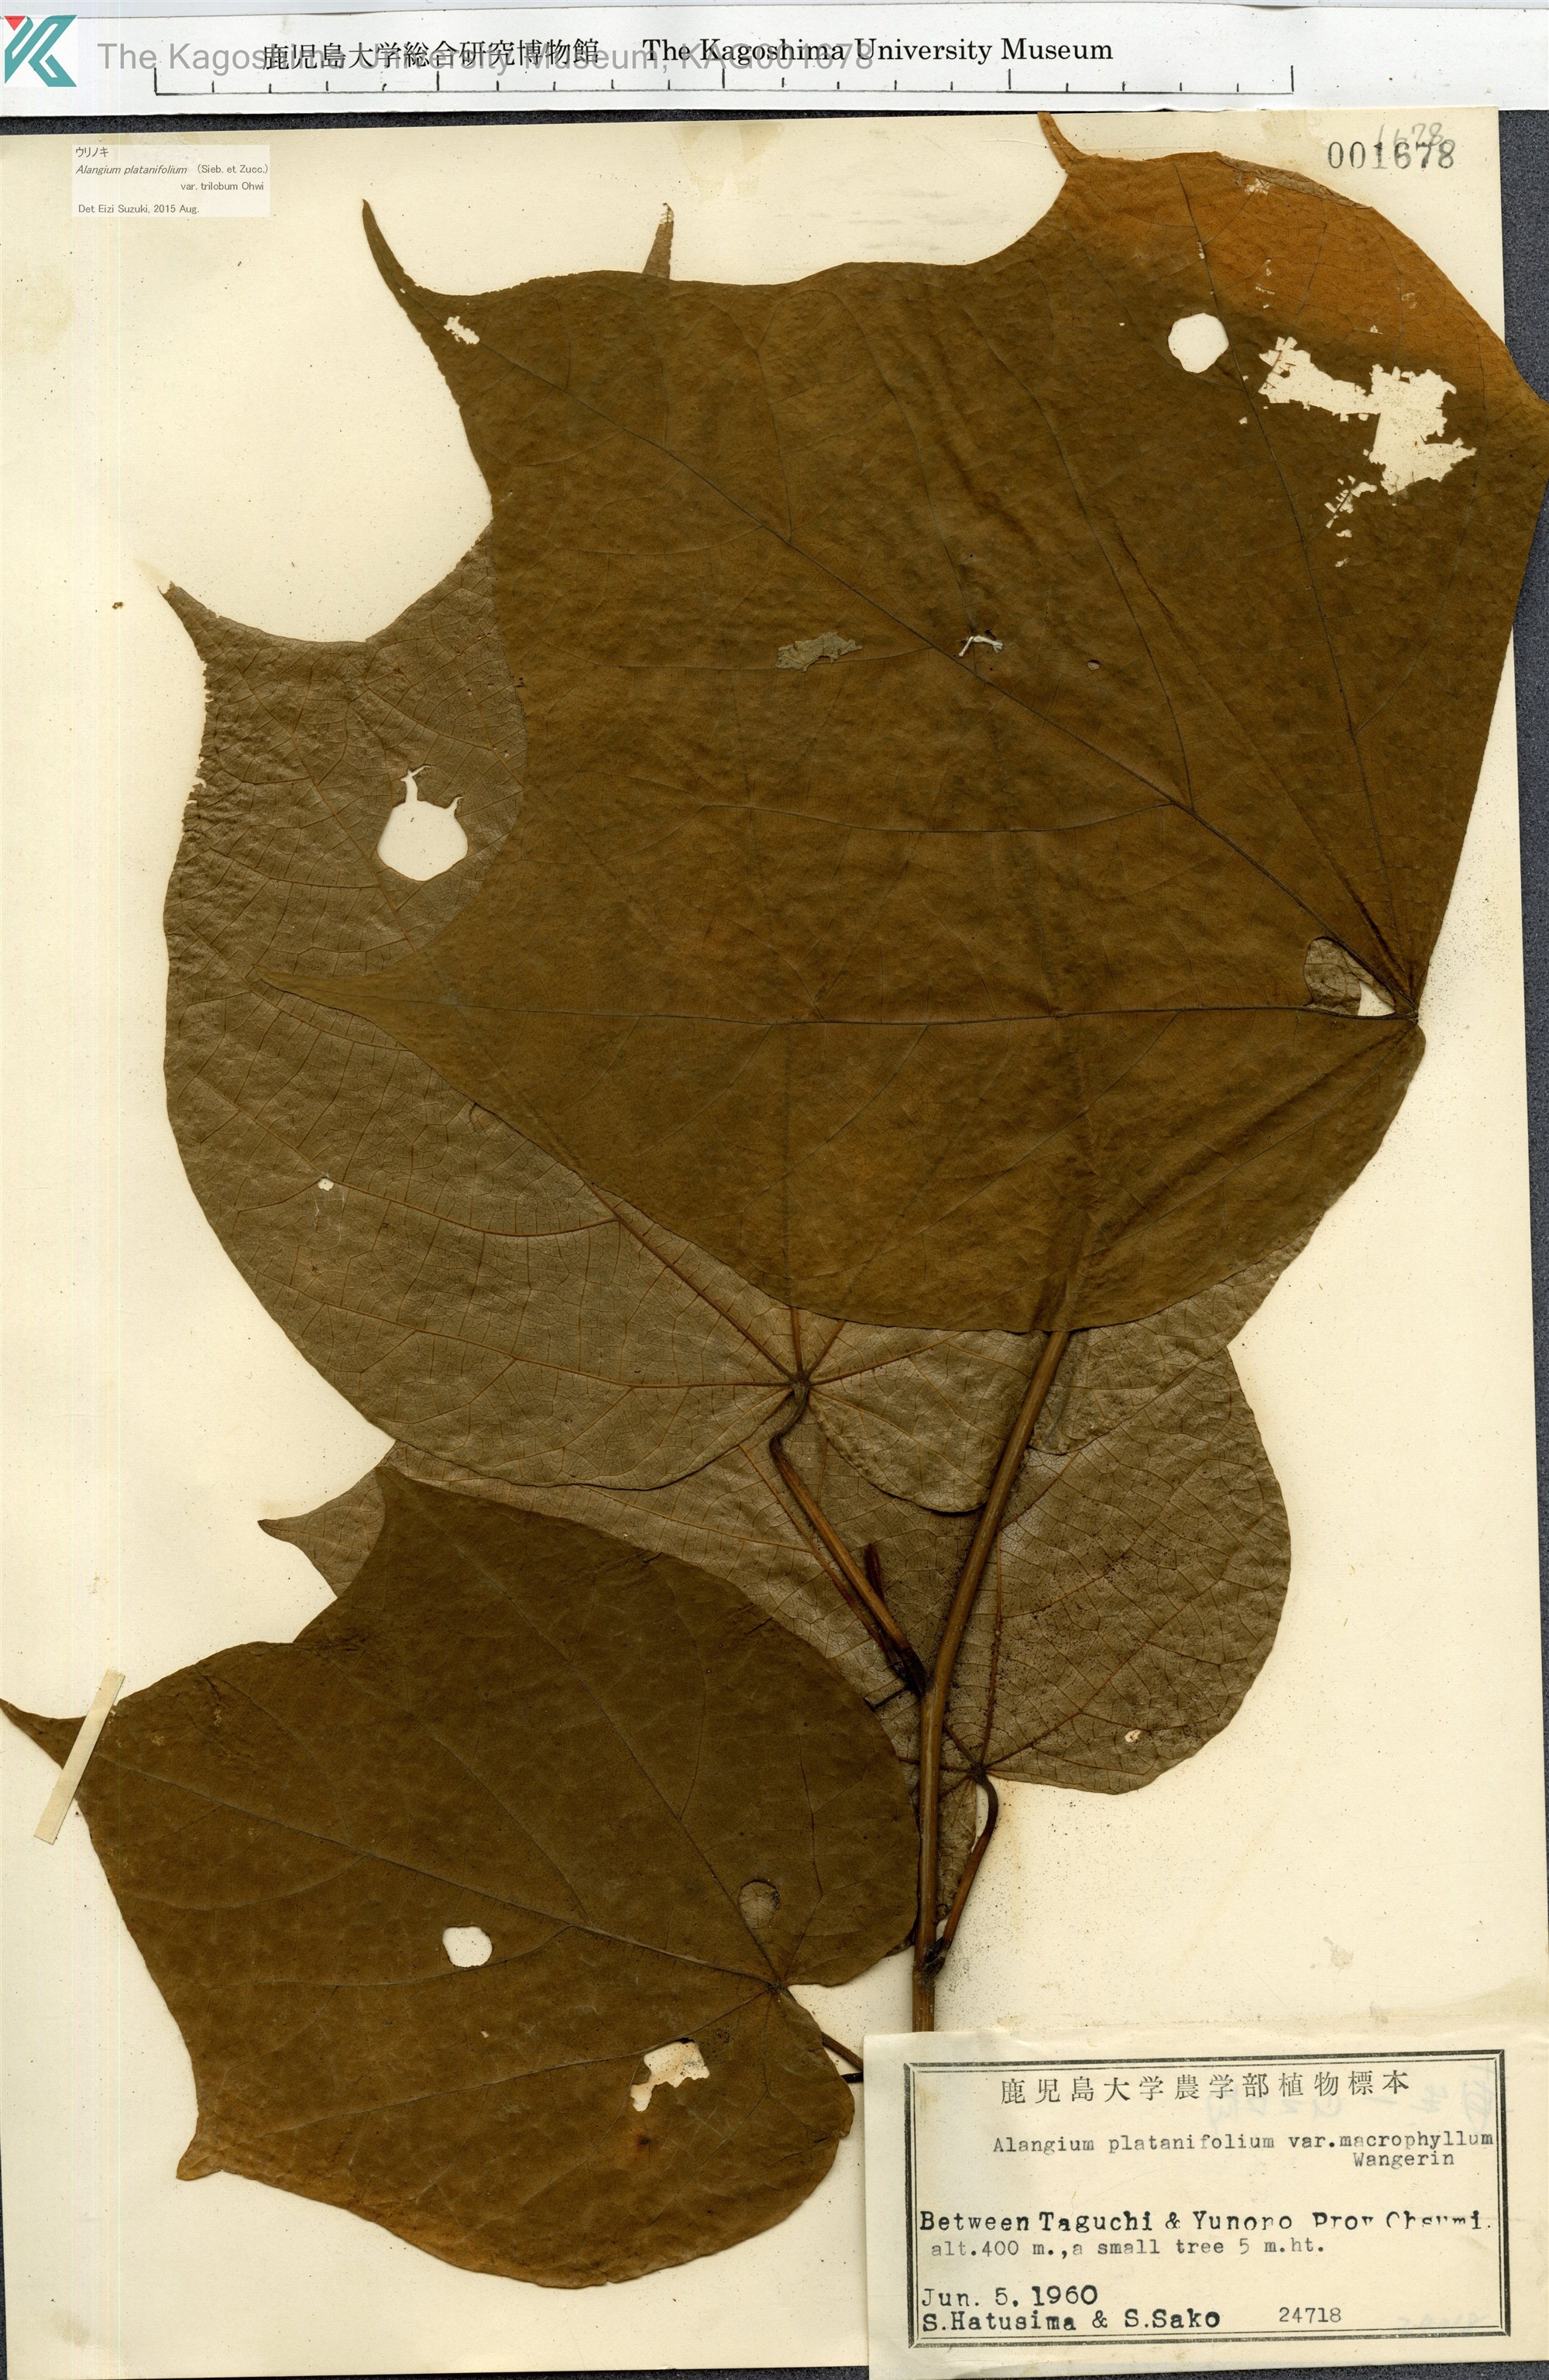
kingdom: Plantae
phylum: Tracheophyta
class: Magnoliopsida
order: Cornales
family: Cornaceae
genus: Alangium
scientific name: Alangium platanifolium
